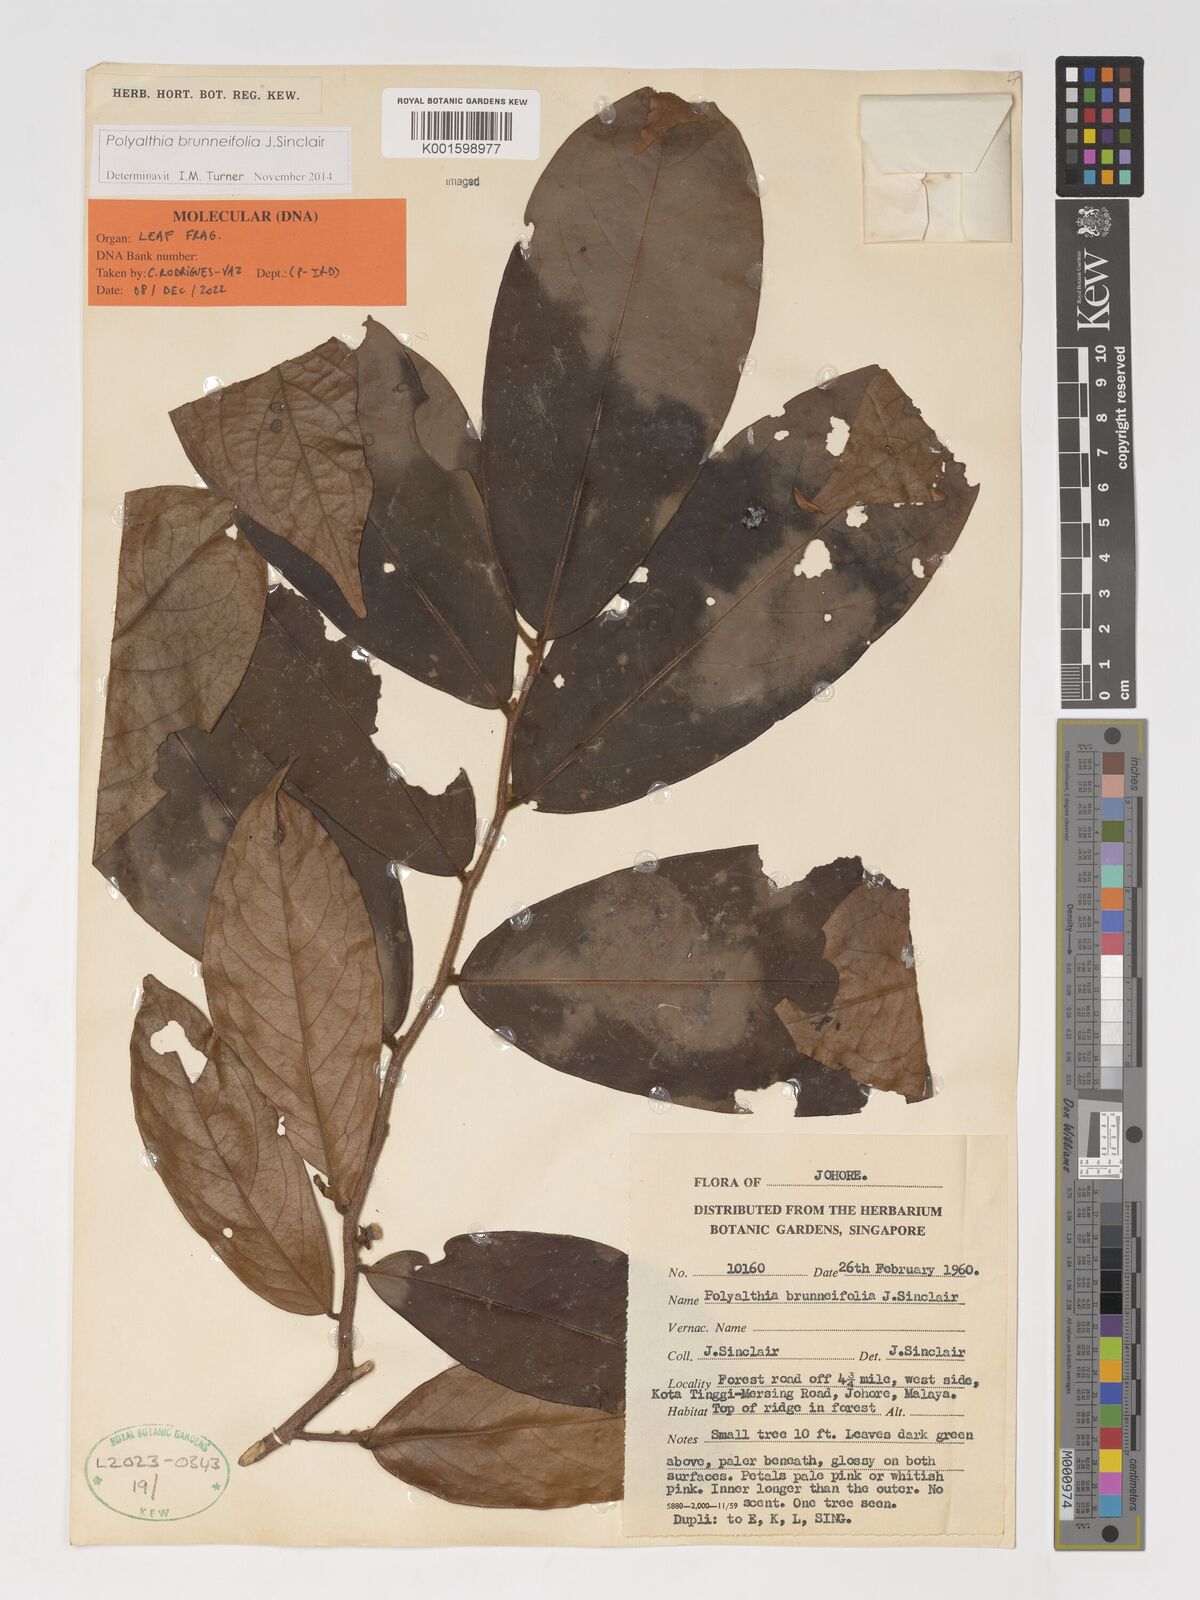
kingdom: Plantae
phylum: Tracheophyta
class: Magnoliopsida
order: Magnoliales
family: Annonaceae
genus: Polyalthia
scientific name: Polyalthia brunneifolia
